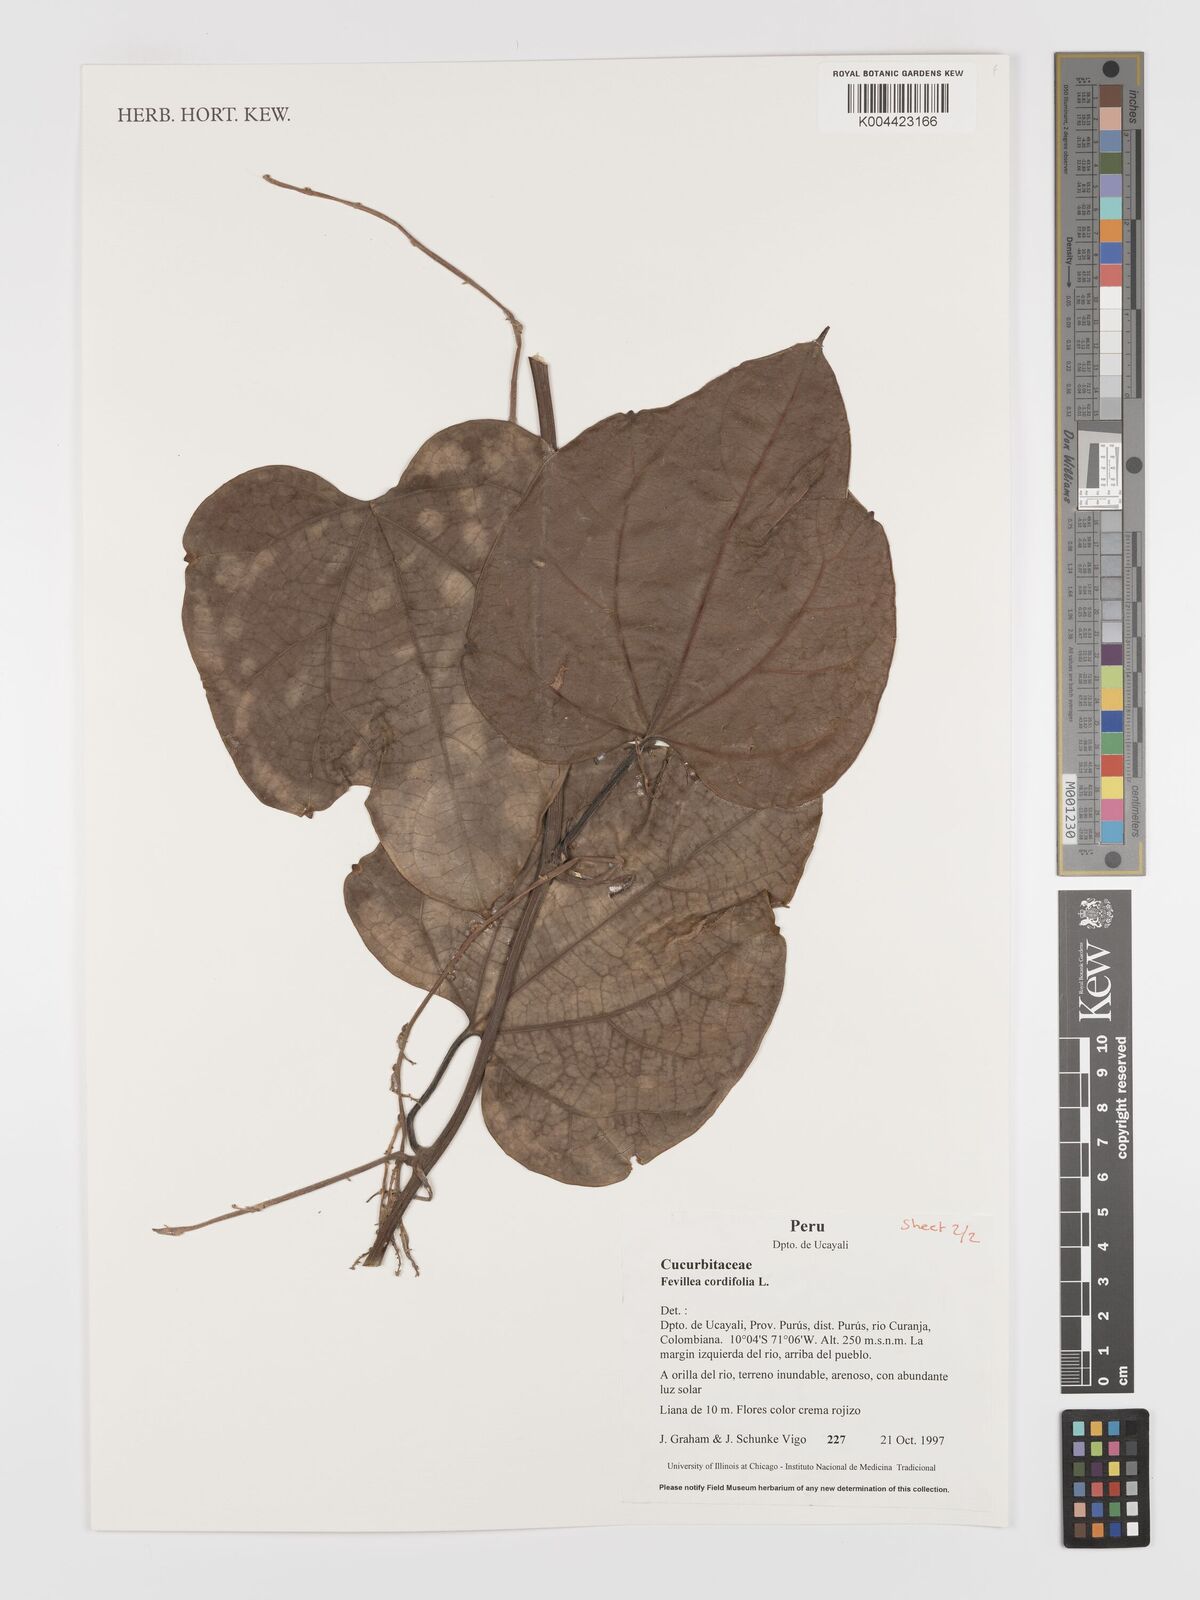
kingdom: Plantae
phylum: Tracheophyta
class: Magnoliopsida
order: Cucurbitales
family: Cucurbitaceae
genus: Fevillea
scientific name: Fevillea
